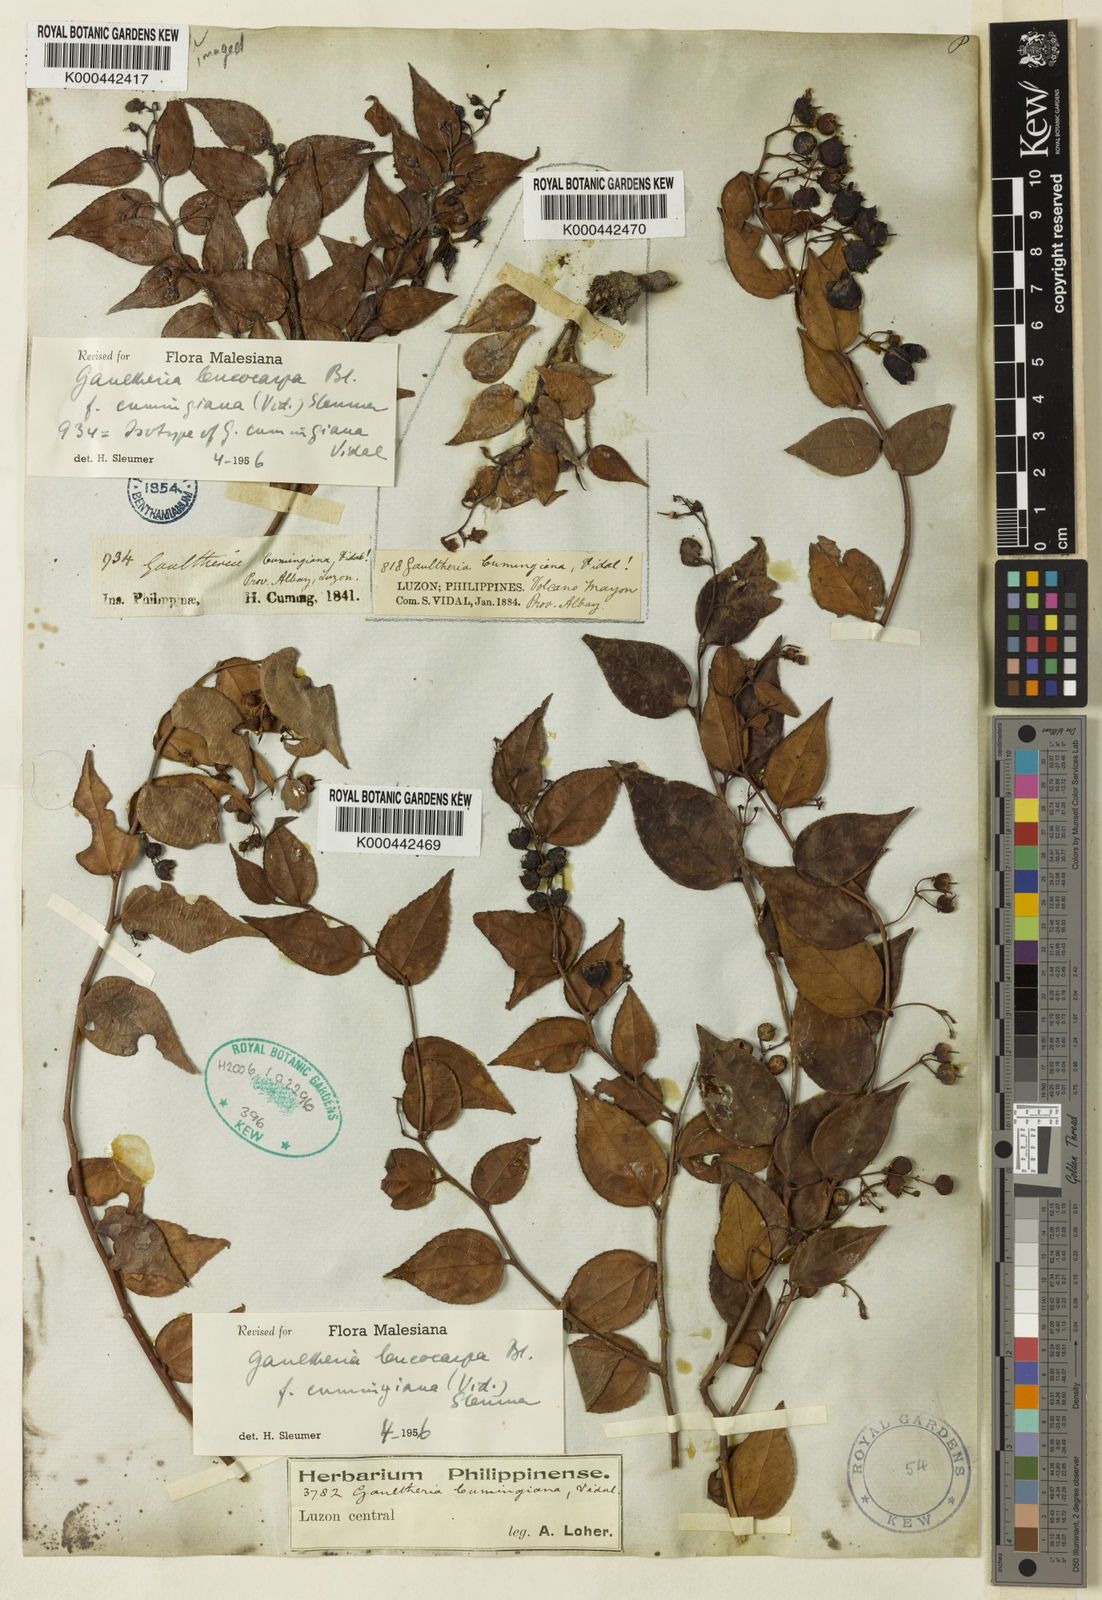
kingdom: Plantae
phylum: Tracheophyta
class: Magnoliopsida
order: Ericales
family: Ericaceae
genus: Gaultheria
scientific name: Gaultheria leucocarpa
